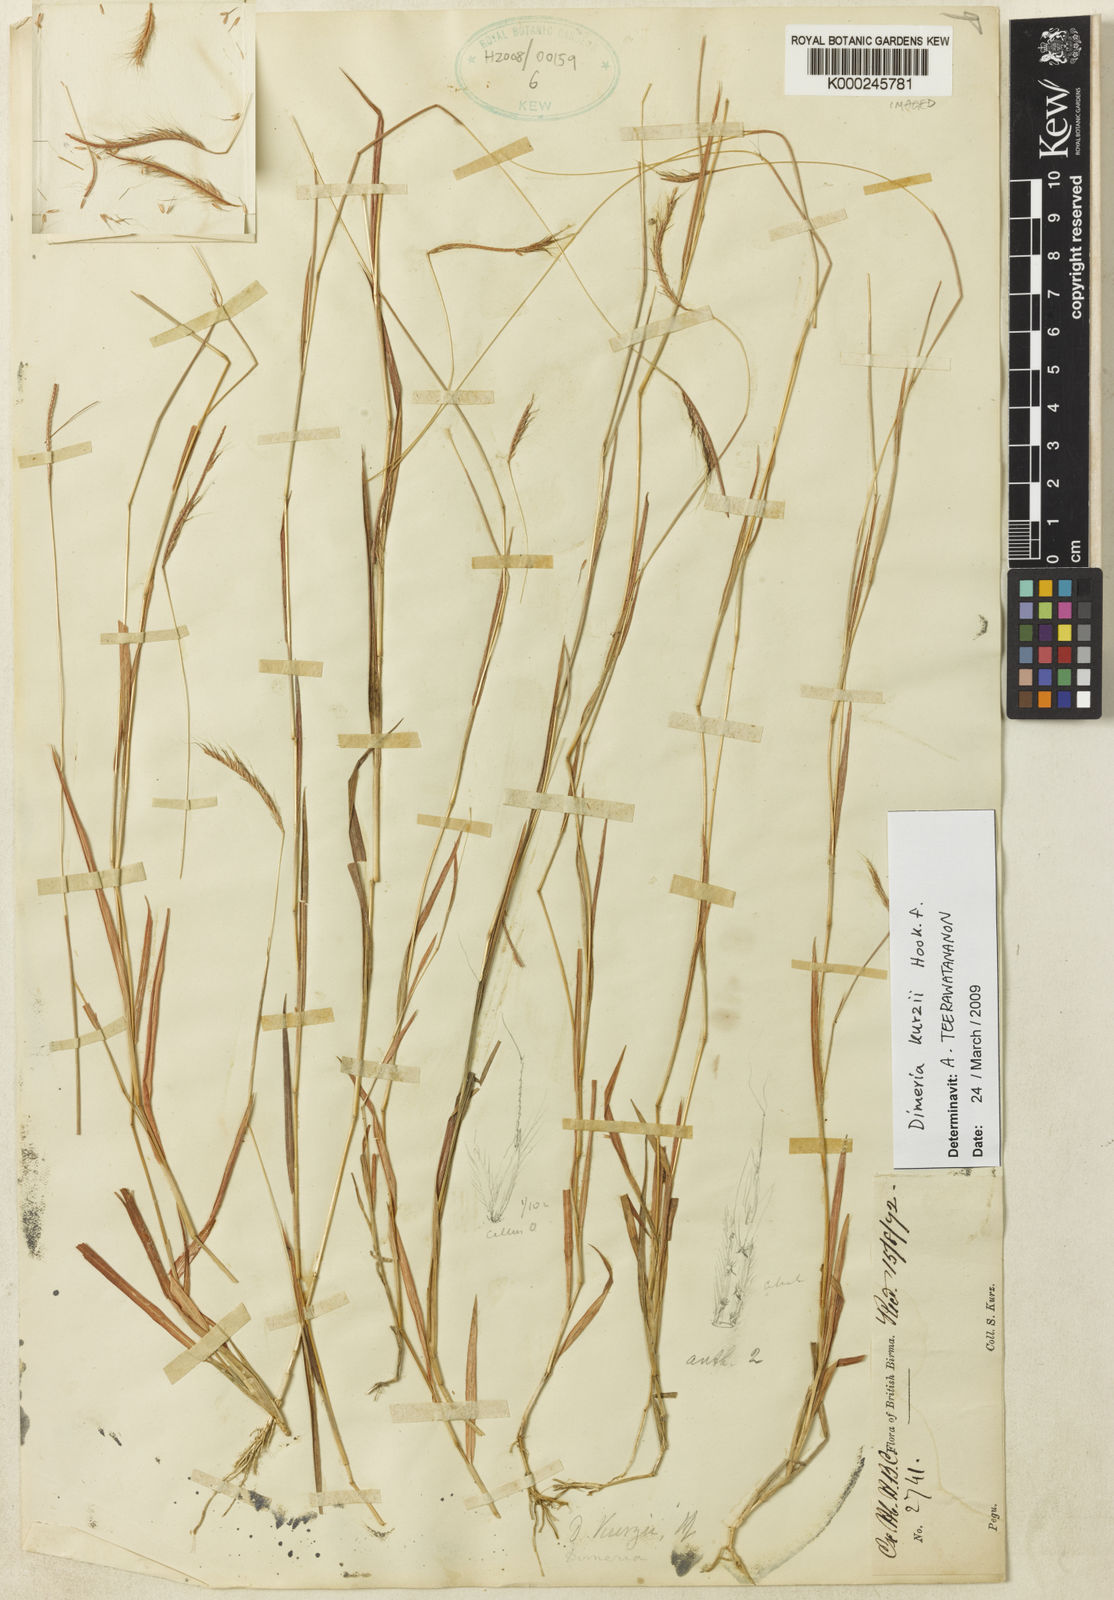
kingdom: Plantae
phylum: Tracheophyta
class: Liliopsida
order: Poales
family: Poaceae
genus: Dimeria
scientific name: Dimeria kurzii
